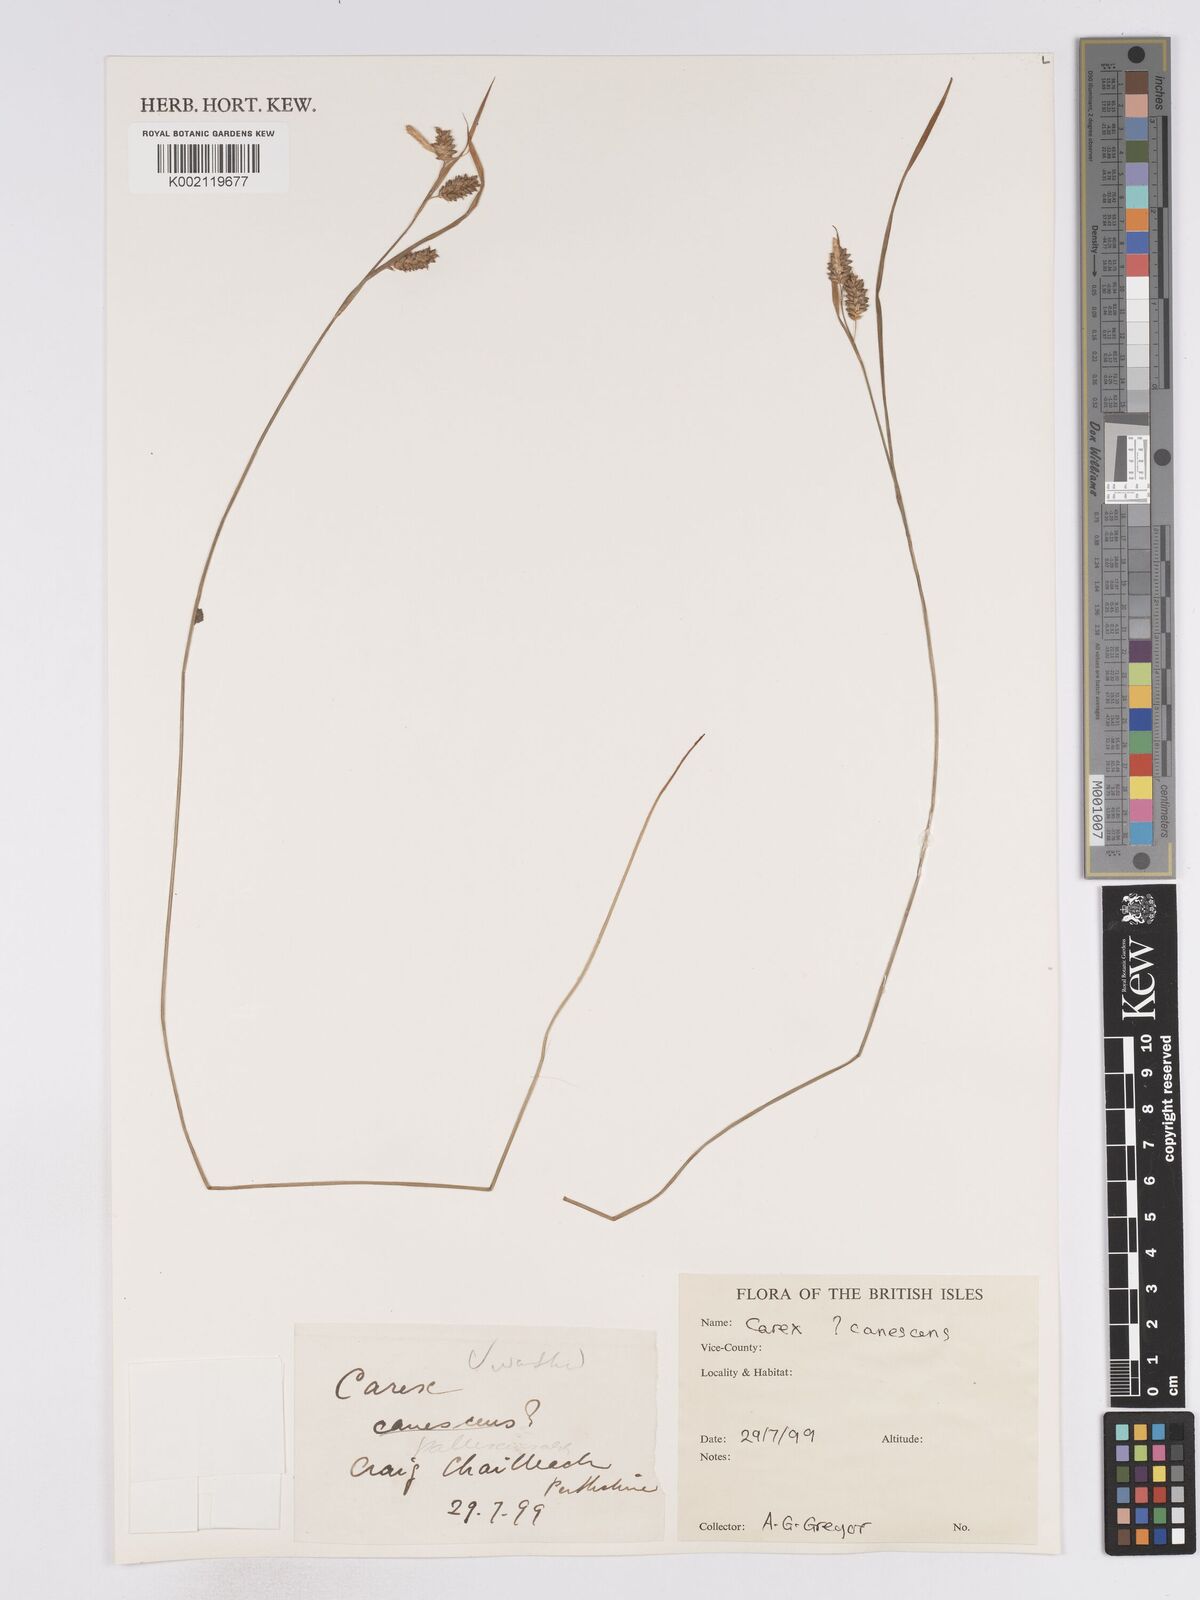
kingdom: Plantae
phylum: Tracheophyta
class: Liliopsida
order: Poales
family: Cyperaceae
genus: Carex
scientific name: Carex divulsa
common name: Grassland sedge
